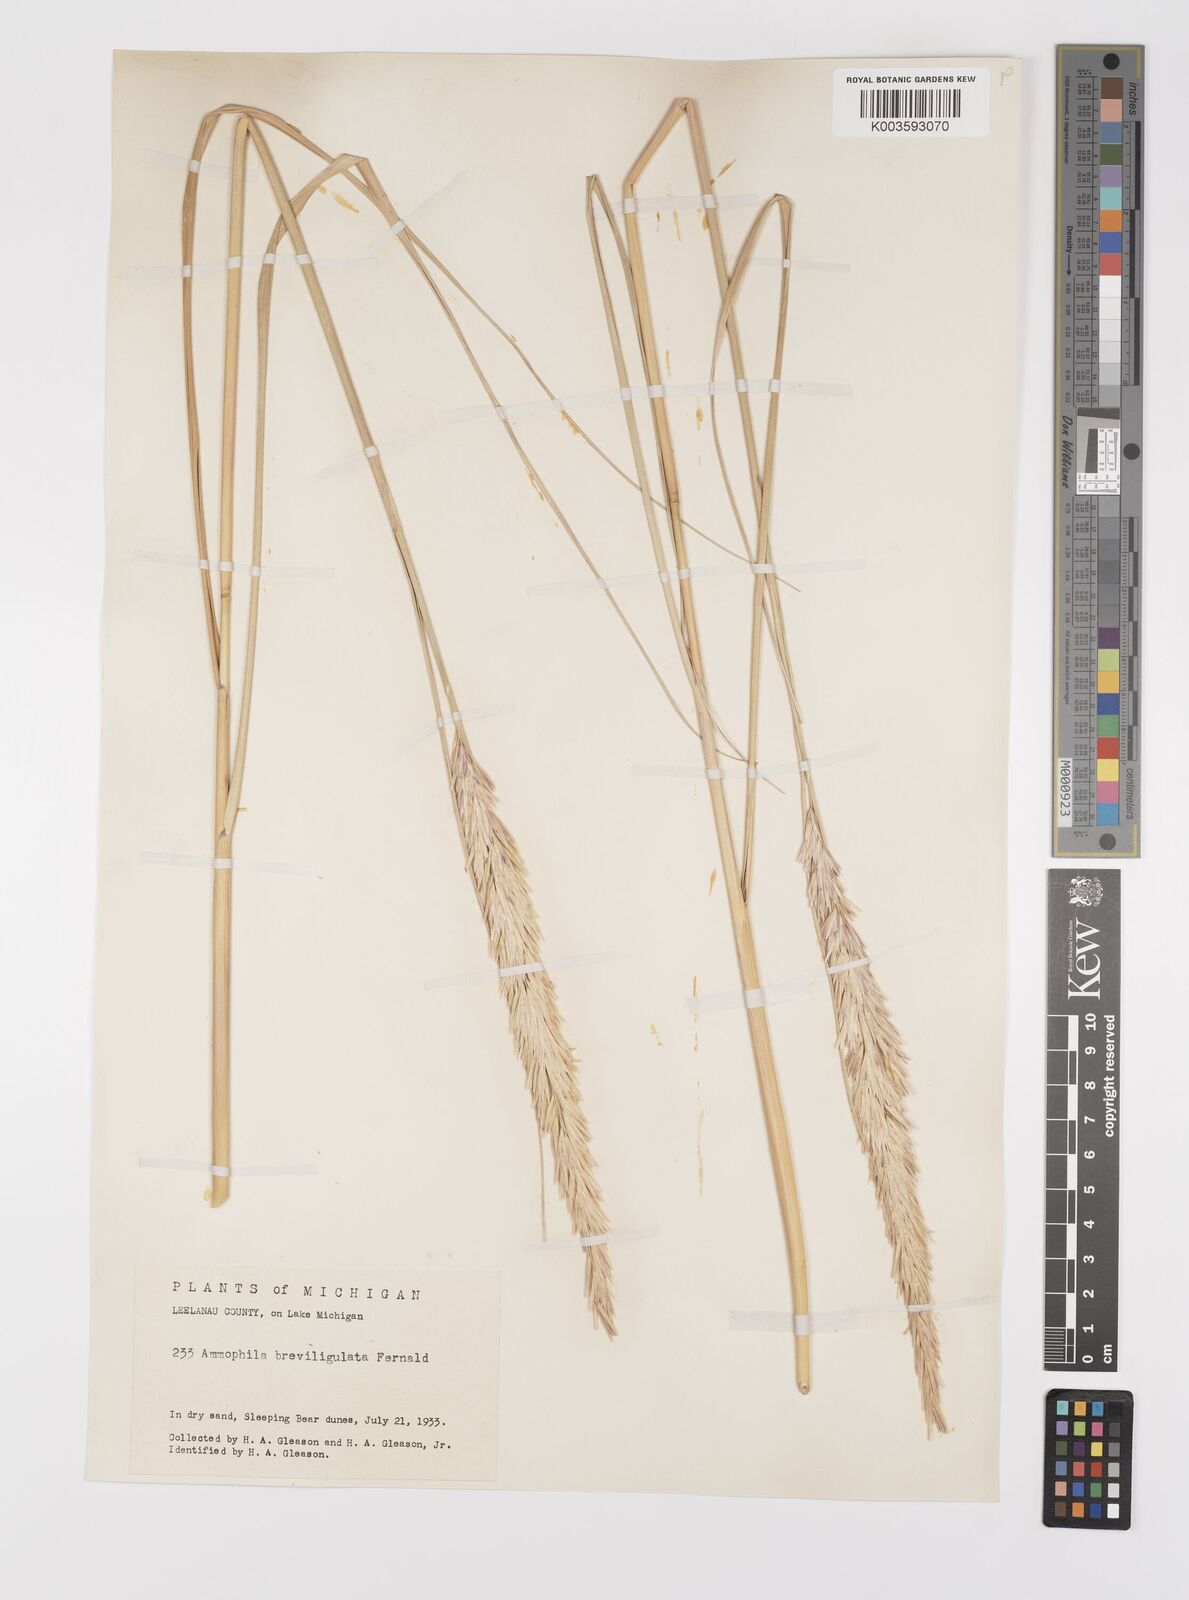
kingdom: Plantae
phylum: Tracheophyta
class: Liliopsida
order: Poales
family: Poaceae
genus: Calamagrostis
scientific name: Calamagrostis breviligulata
